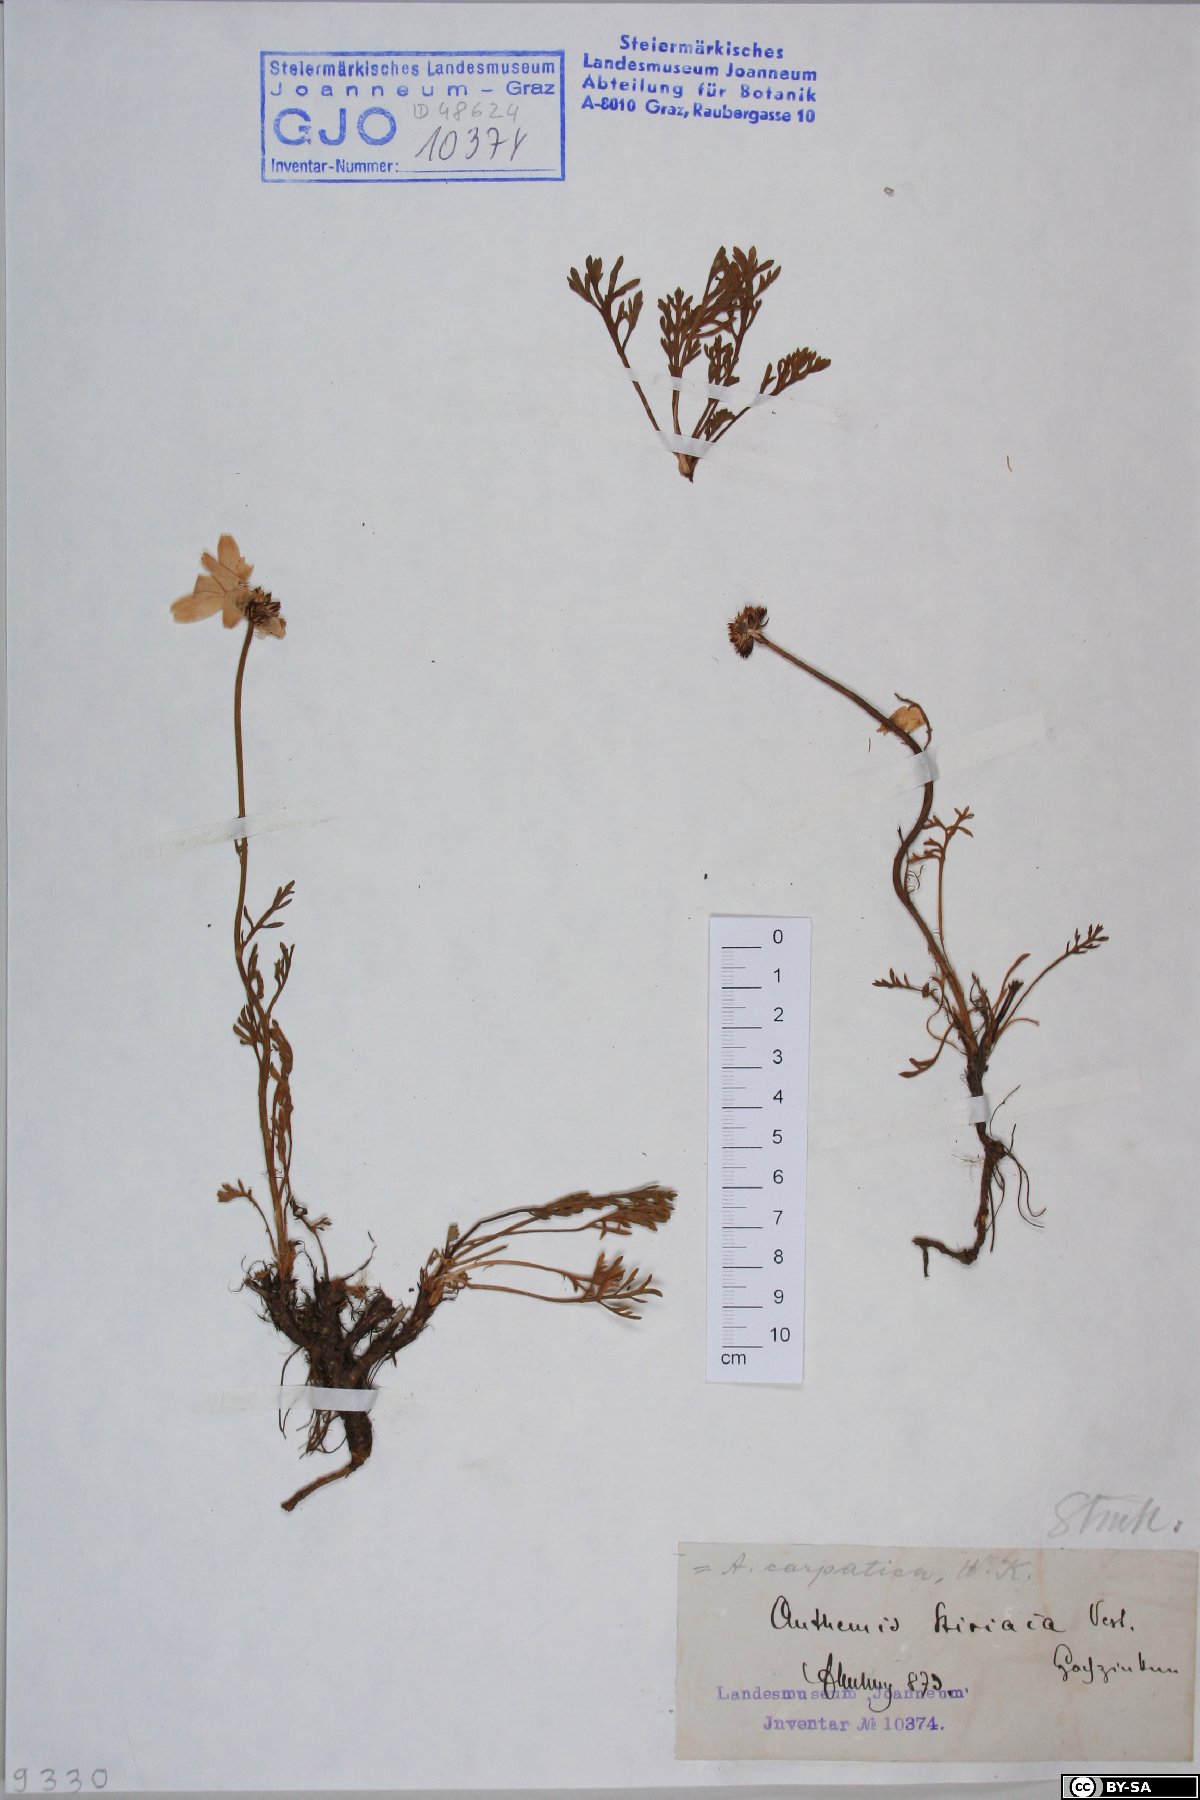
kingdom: Plantae
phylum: Tracheophyta
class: Magnoliopsida
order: Asterales
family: Asteraceae
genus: Anthemis
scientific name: Anthemis cretica
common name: Mountain dog-daisy
